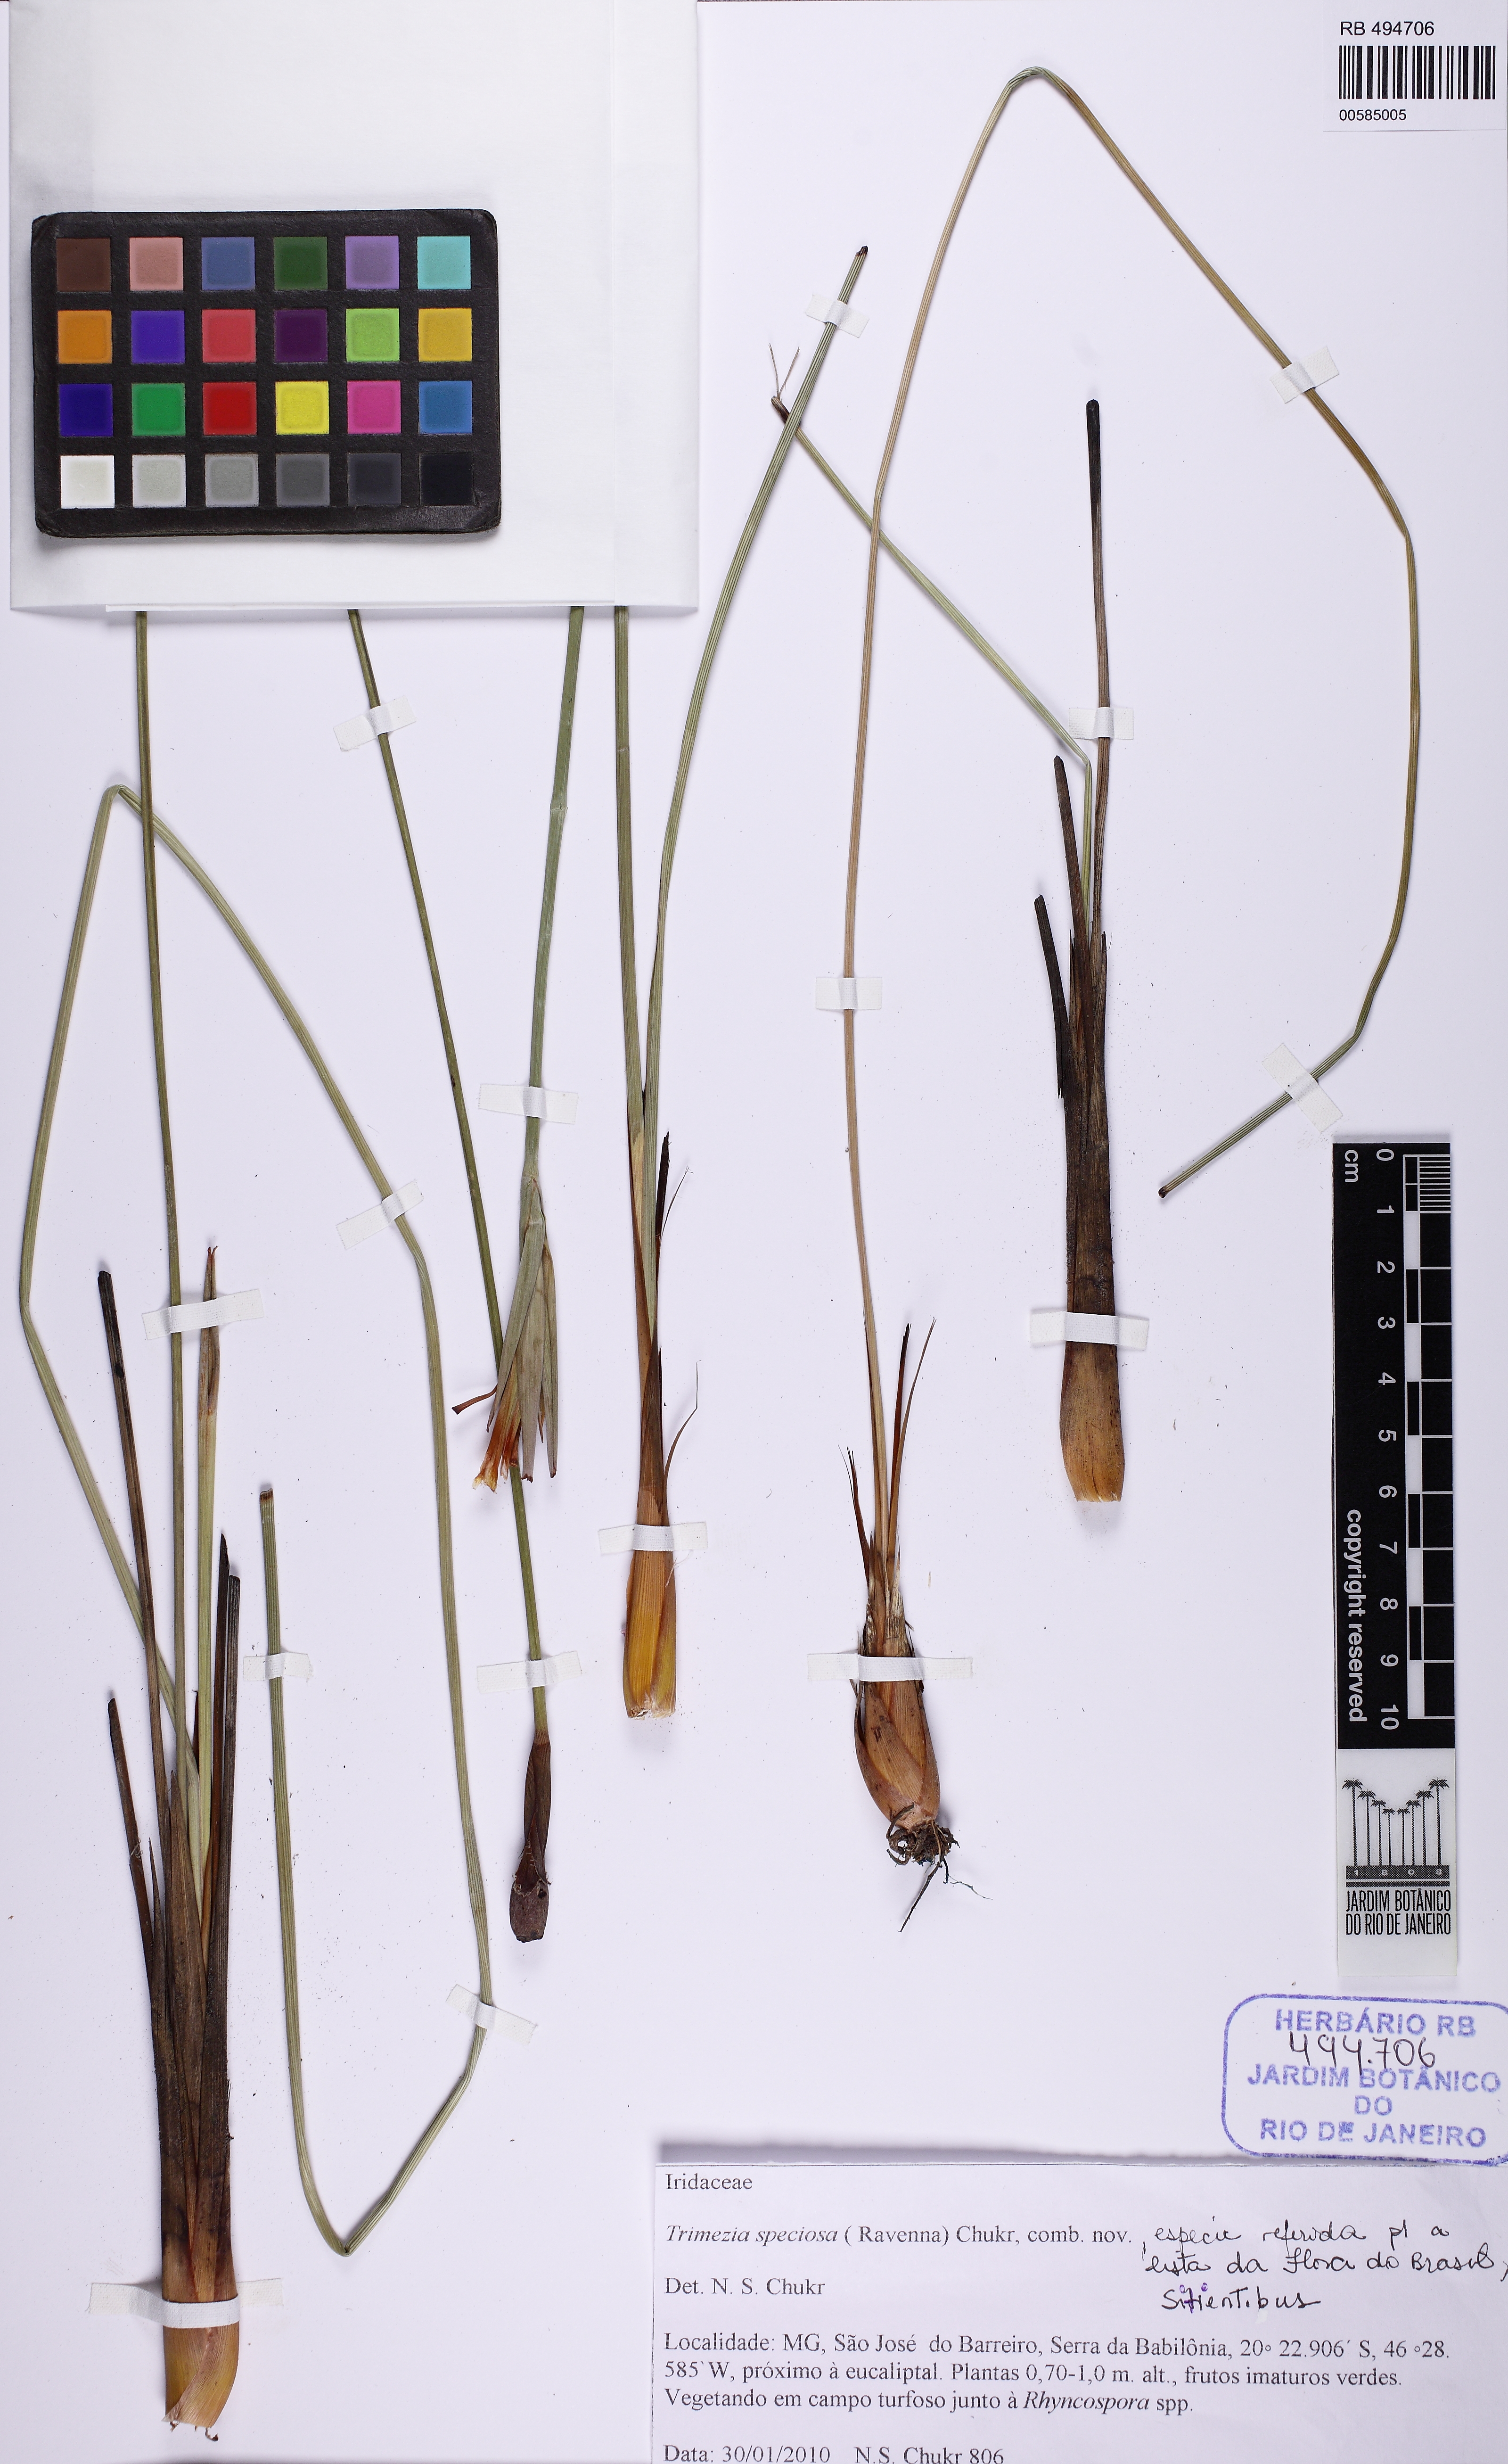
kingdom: Plantae
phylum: Tracheophyta
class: Liliopsida
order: Asparagales
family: Iridaceae
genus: Trimezia
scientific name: Trimezia speciosa
